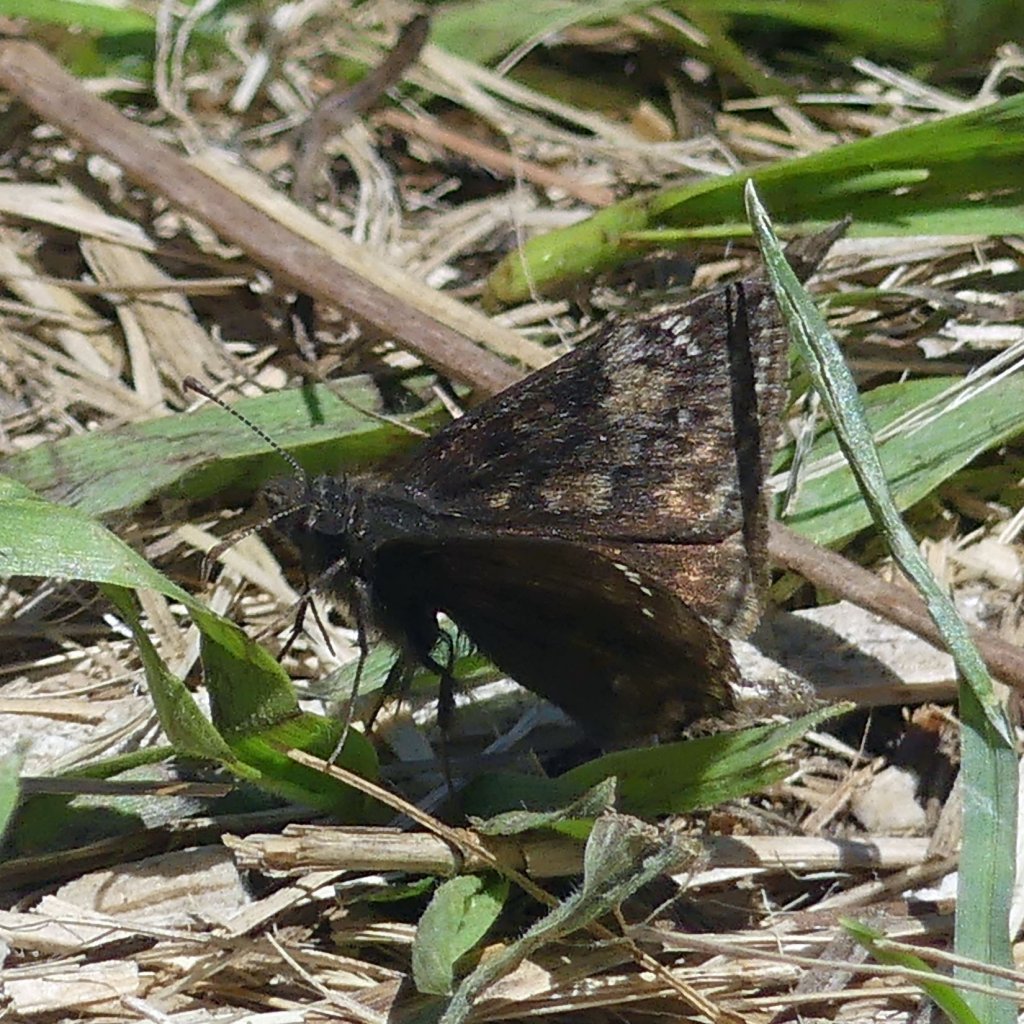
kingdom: Animalia
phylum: Arthropoda
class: Insecta
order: Lepidoptera
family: Hesperiidae
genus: Gesta
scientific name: Gesta
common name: Wild Indigo Duskywing
